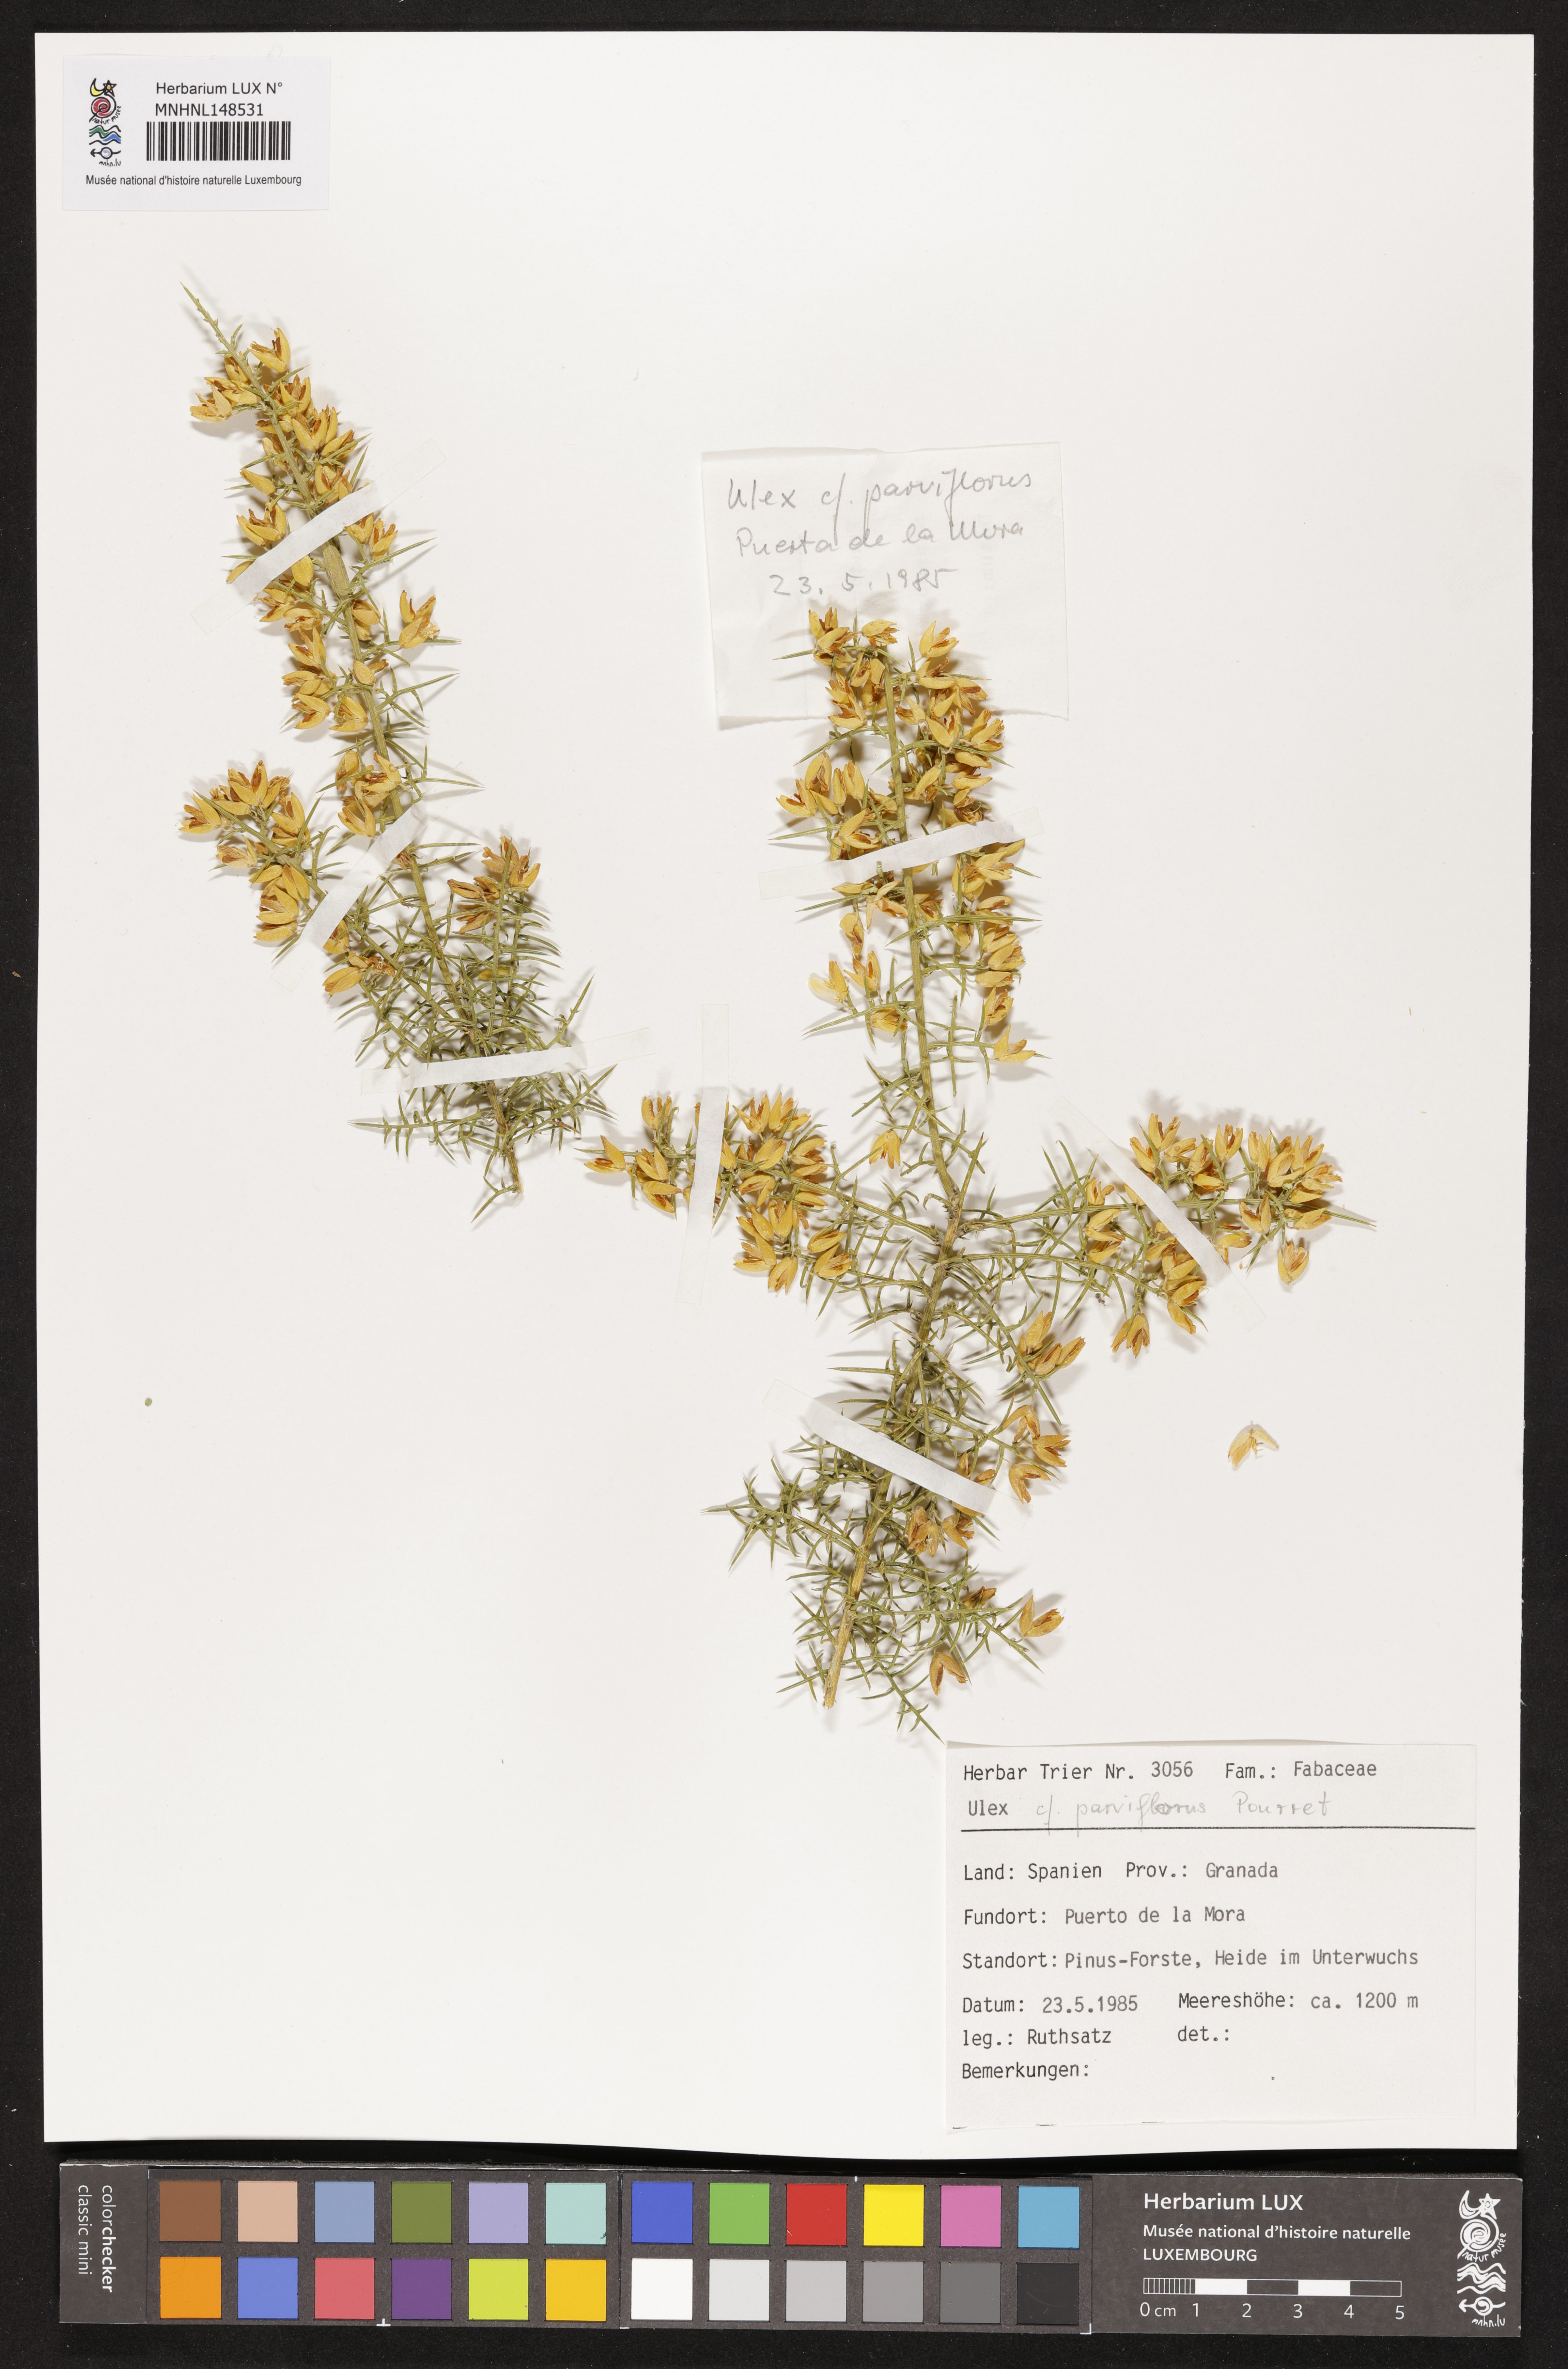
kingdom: Plantae
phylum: Tracheophyta
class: Magnoliopsida
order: Fabales
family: Fabaceae
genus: Ulex
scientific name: Ulex parviflorus
